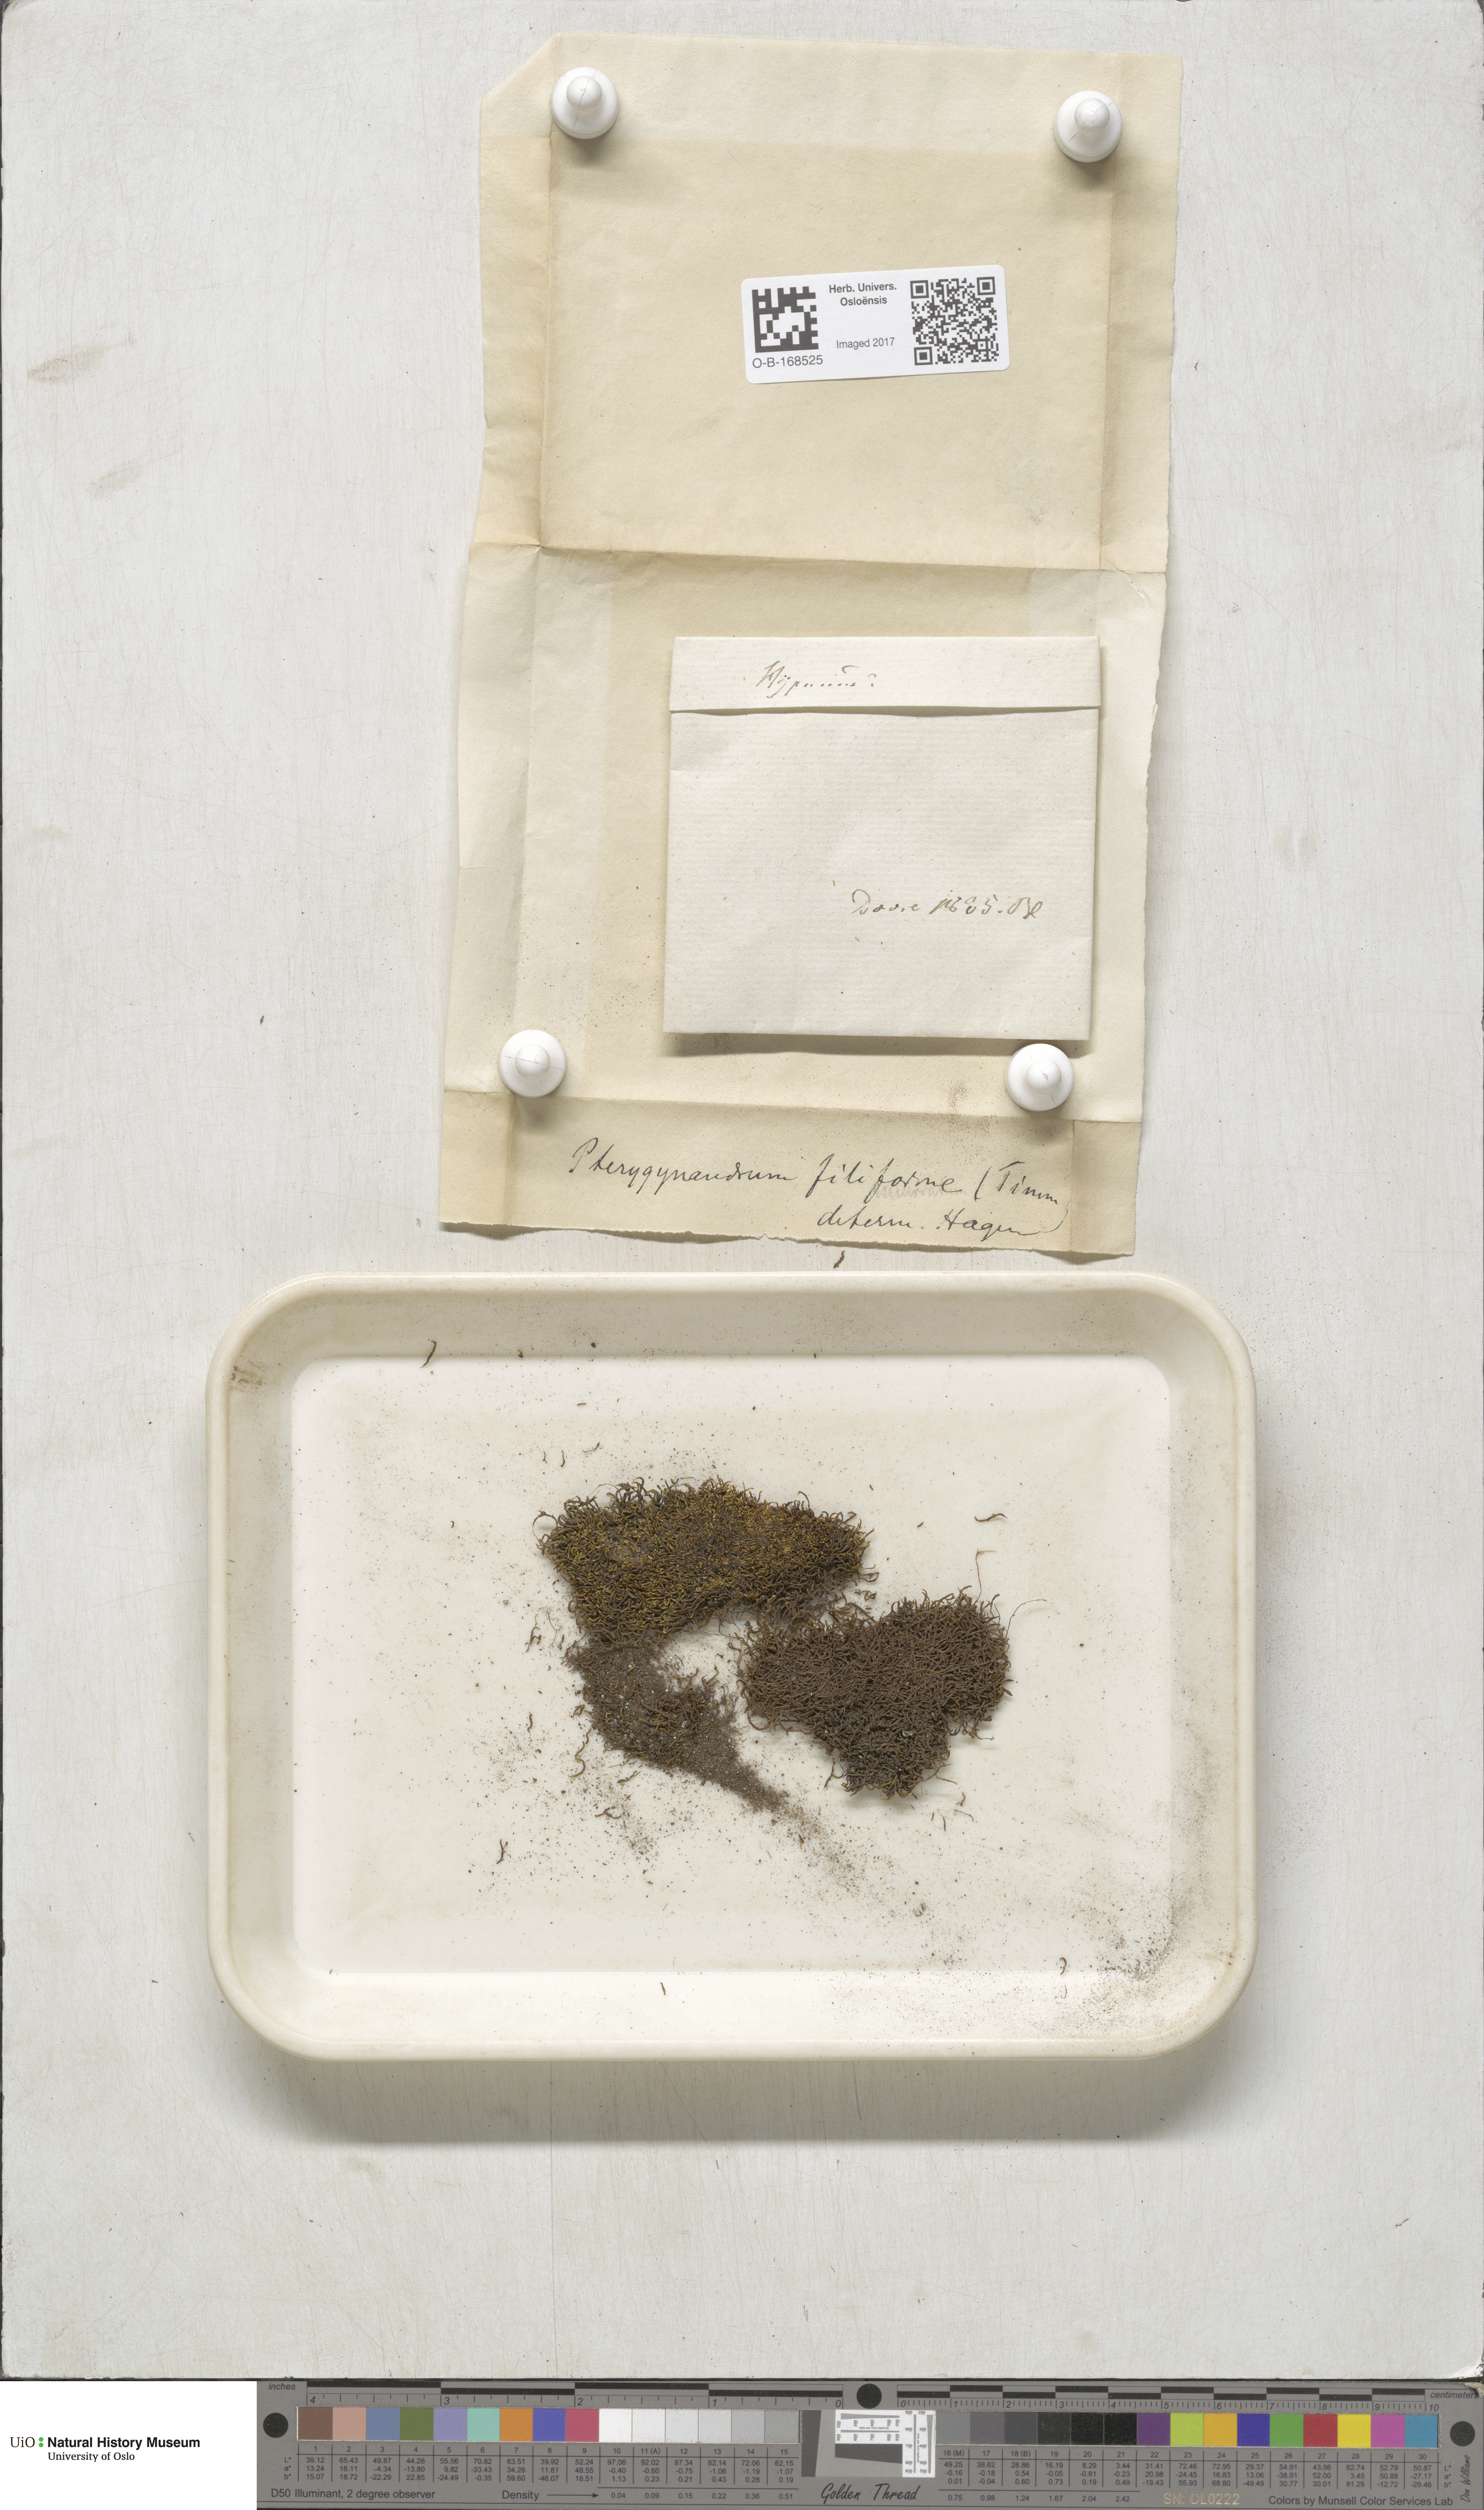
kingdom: Plantae
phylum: Bryophyta
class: Bryopsida
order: Hypnales
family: Pterigynandraceae
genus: Pterigynandrum
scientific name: Pterigynandrum filiforme
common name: Capillary wing moss
